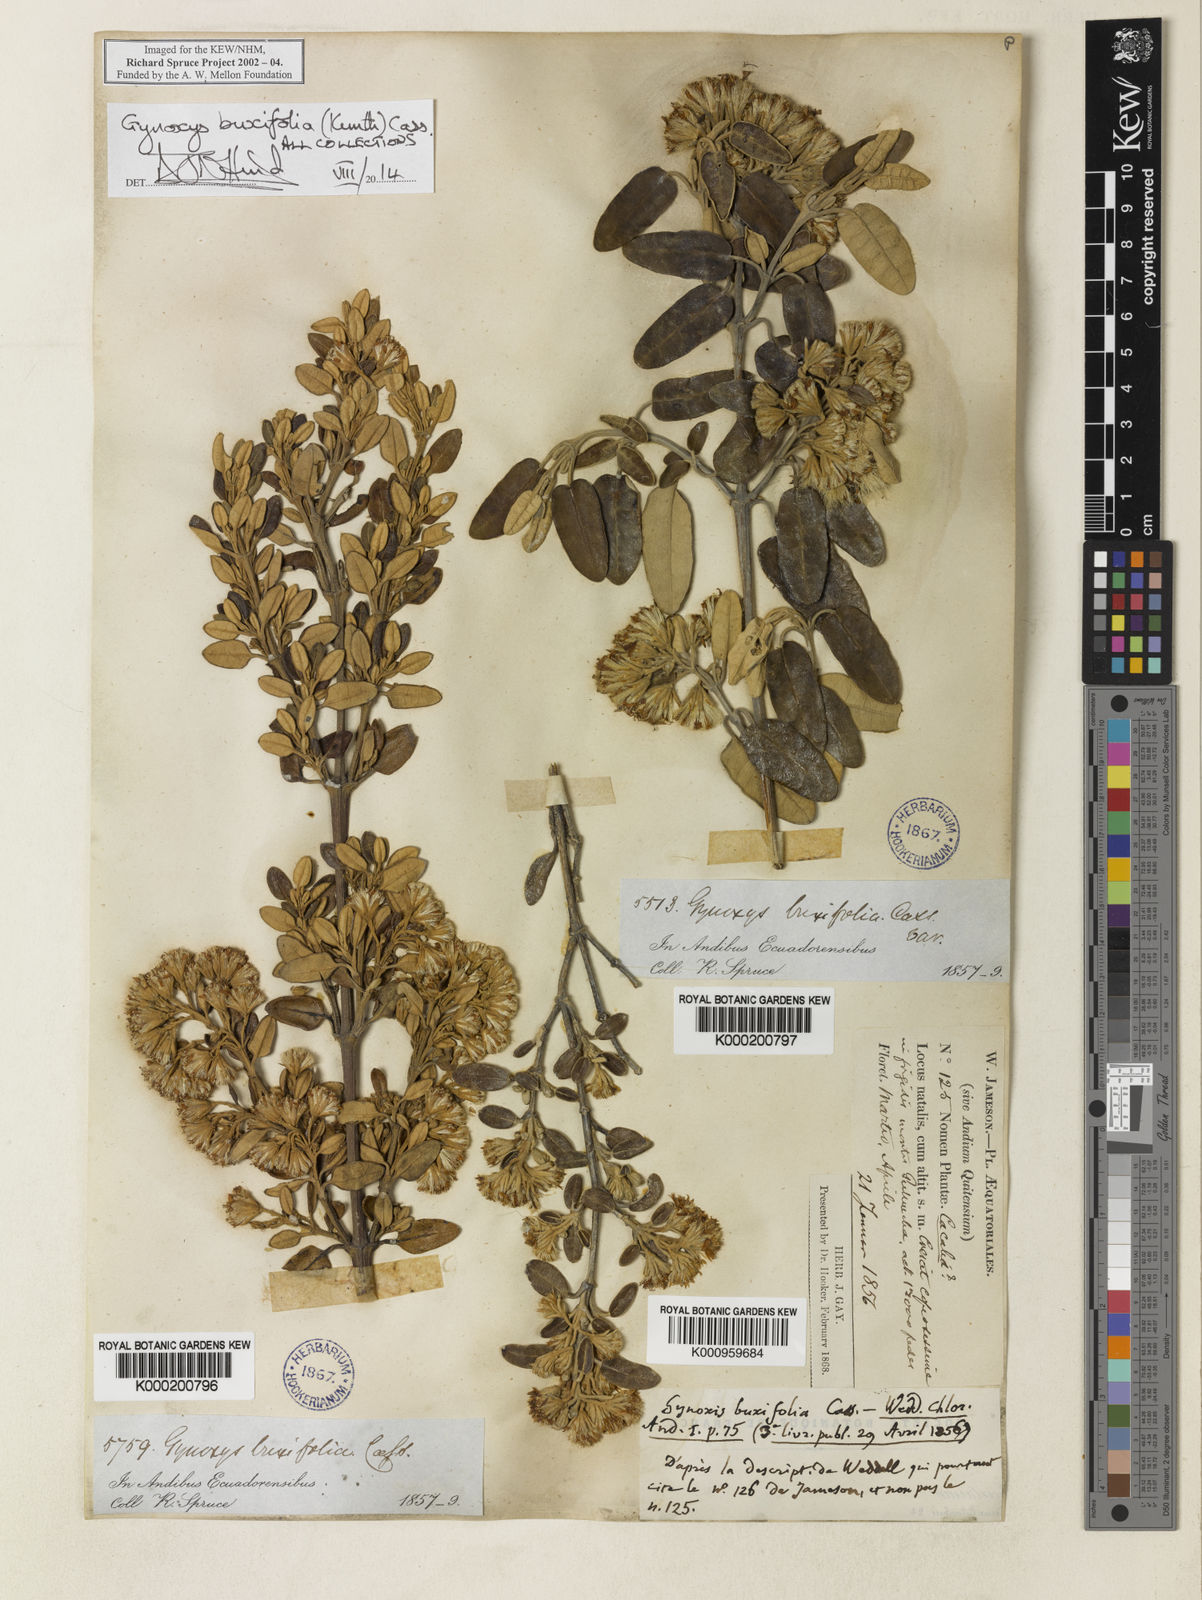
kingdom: Plantae
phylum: Tracheophyta
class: Magnoliopsida
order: Asterales
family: Asteraceae
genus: Gynoxys
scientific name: Gynoxys buxifolia
